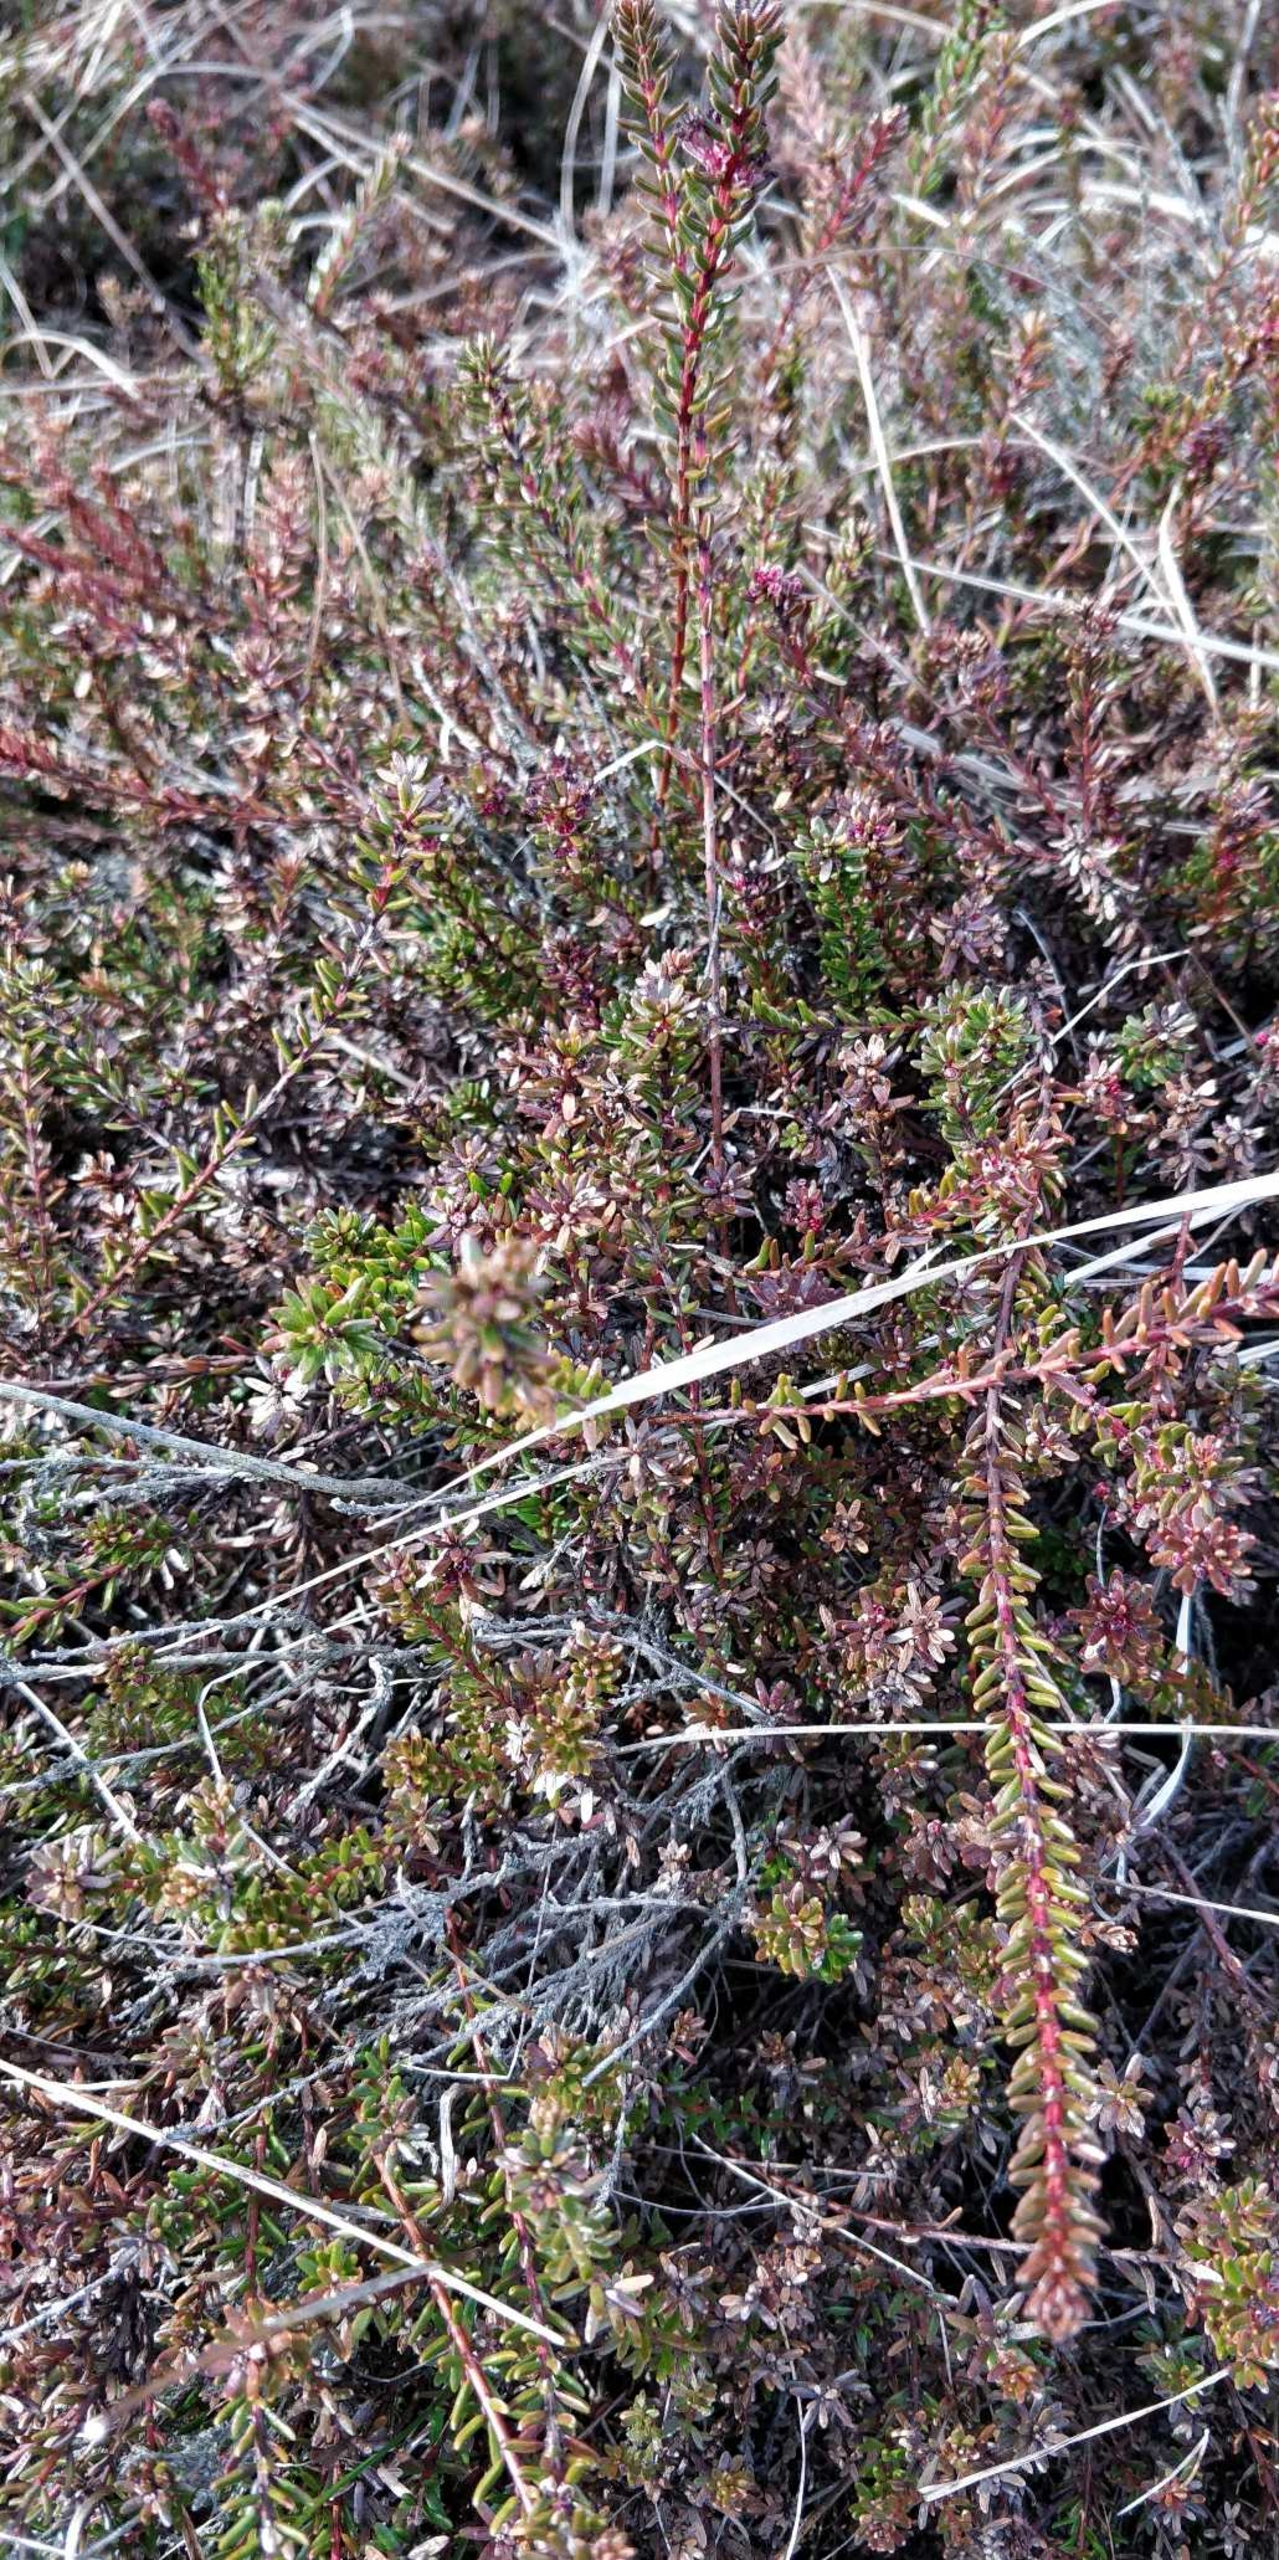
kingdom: Plantae
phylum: Tracheophyta
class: Magnoliopsida
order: Ericales
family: Ericaceae
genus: Empetrum
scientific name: Empetrum nigrum
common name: Revling
